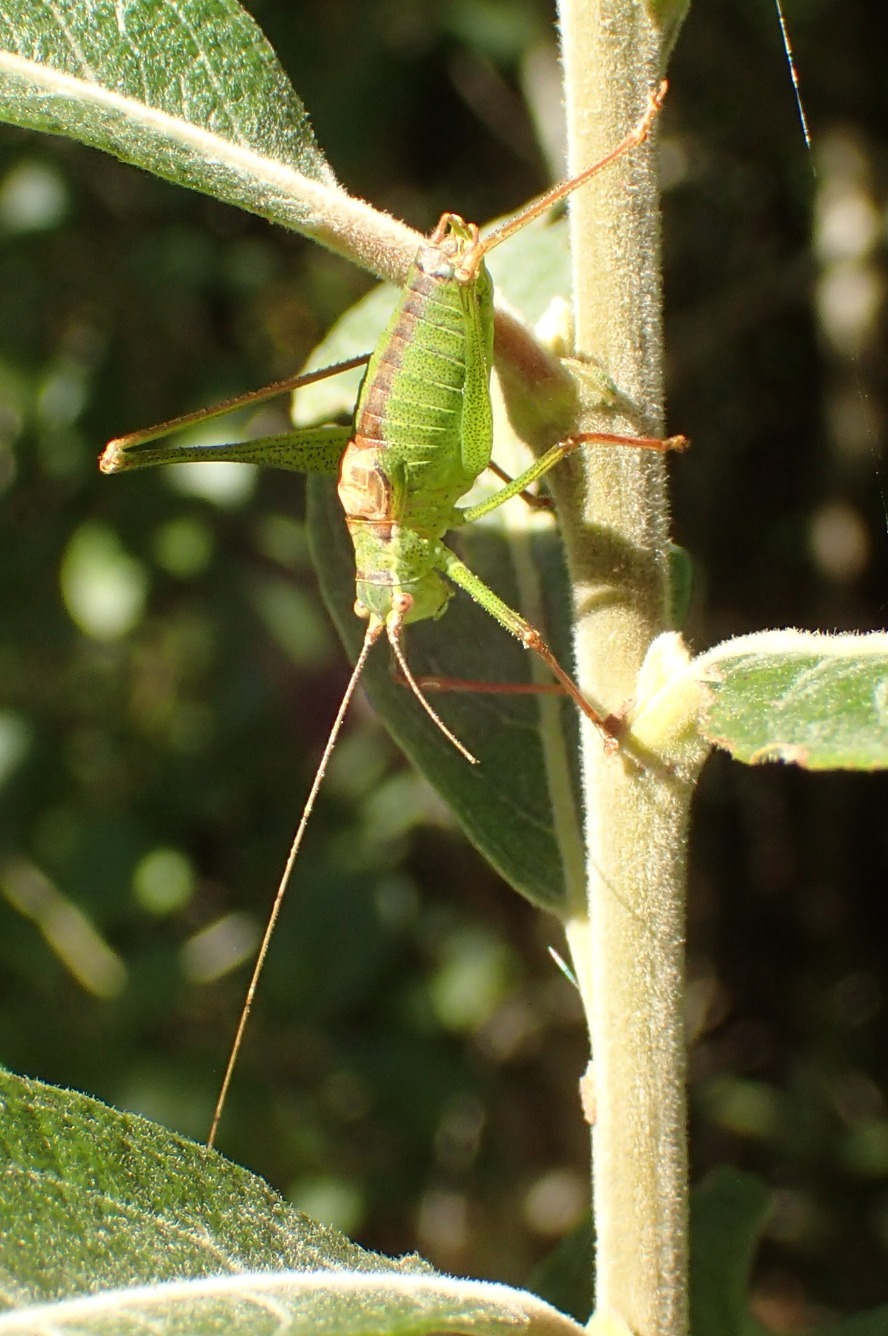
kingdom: Animalia
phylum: Arthropoda
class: Insecta
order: Orthoptera
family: Tettigoniidae
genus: Leptophyes
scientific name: Leptophyes punctatissima
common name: Krumknivgræshoppe
